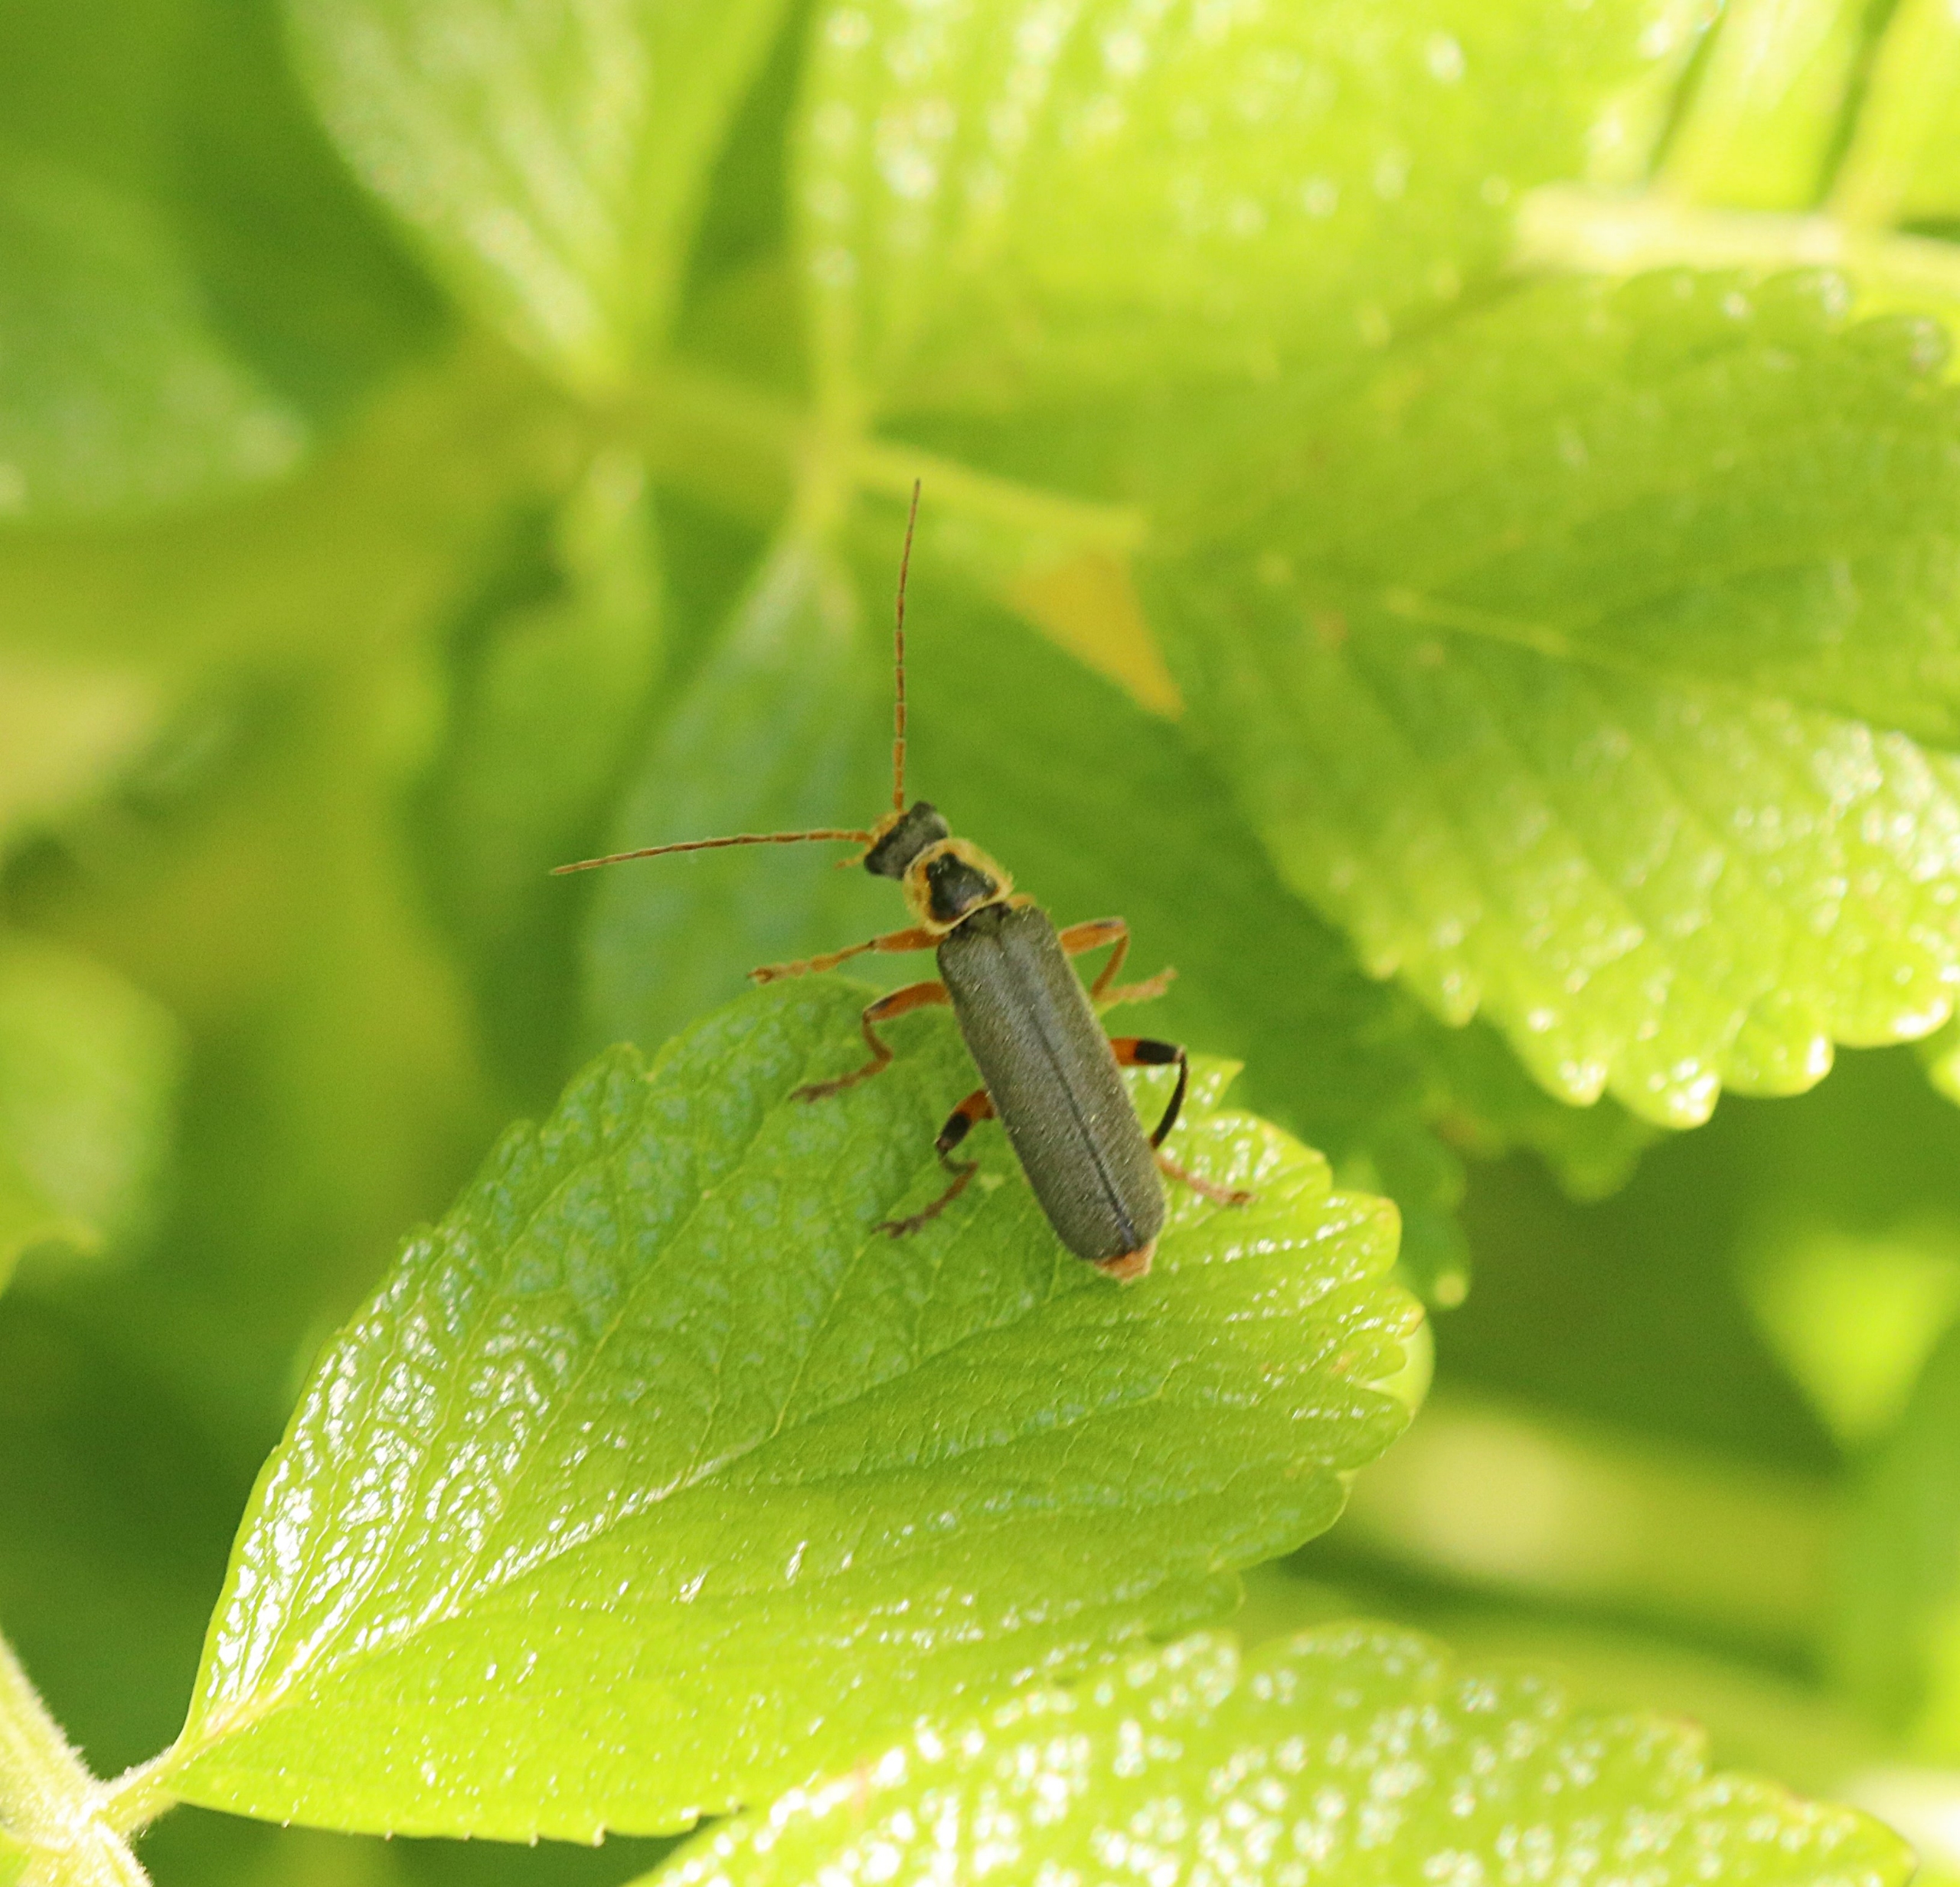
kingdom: Animalia
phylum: Arthropoda
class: Insecta
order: Coleoptera
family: Cantharidae
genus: Cantharis
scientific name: Cantharis nigricans
